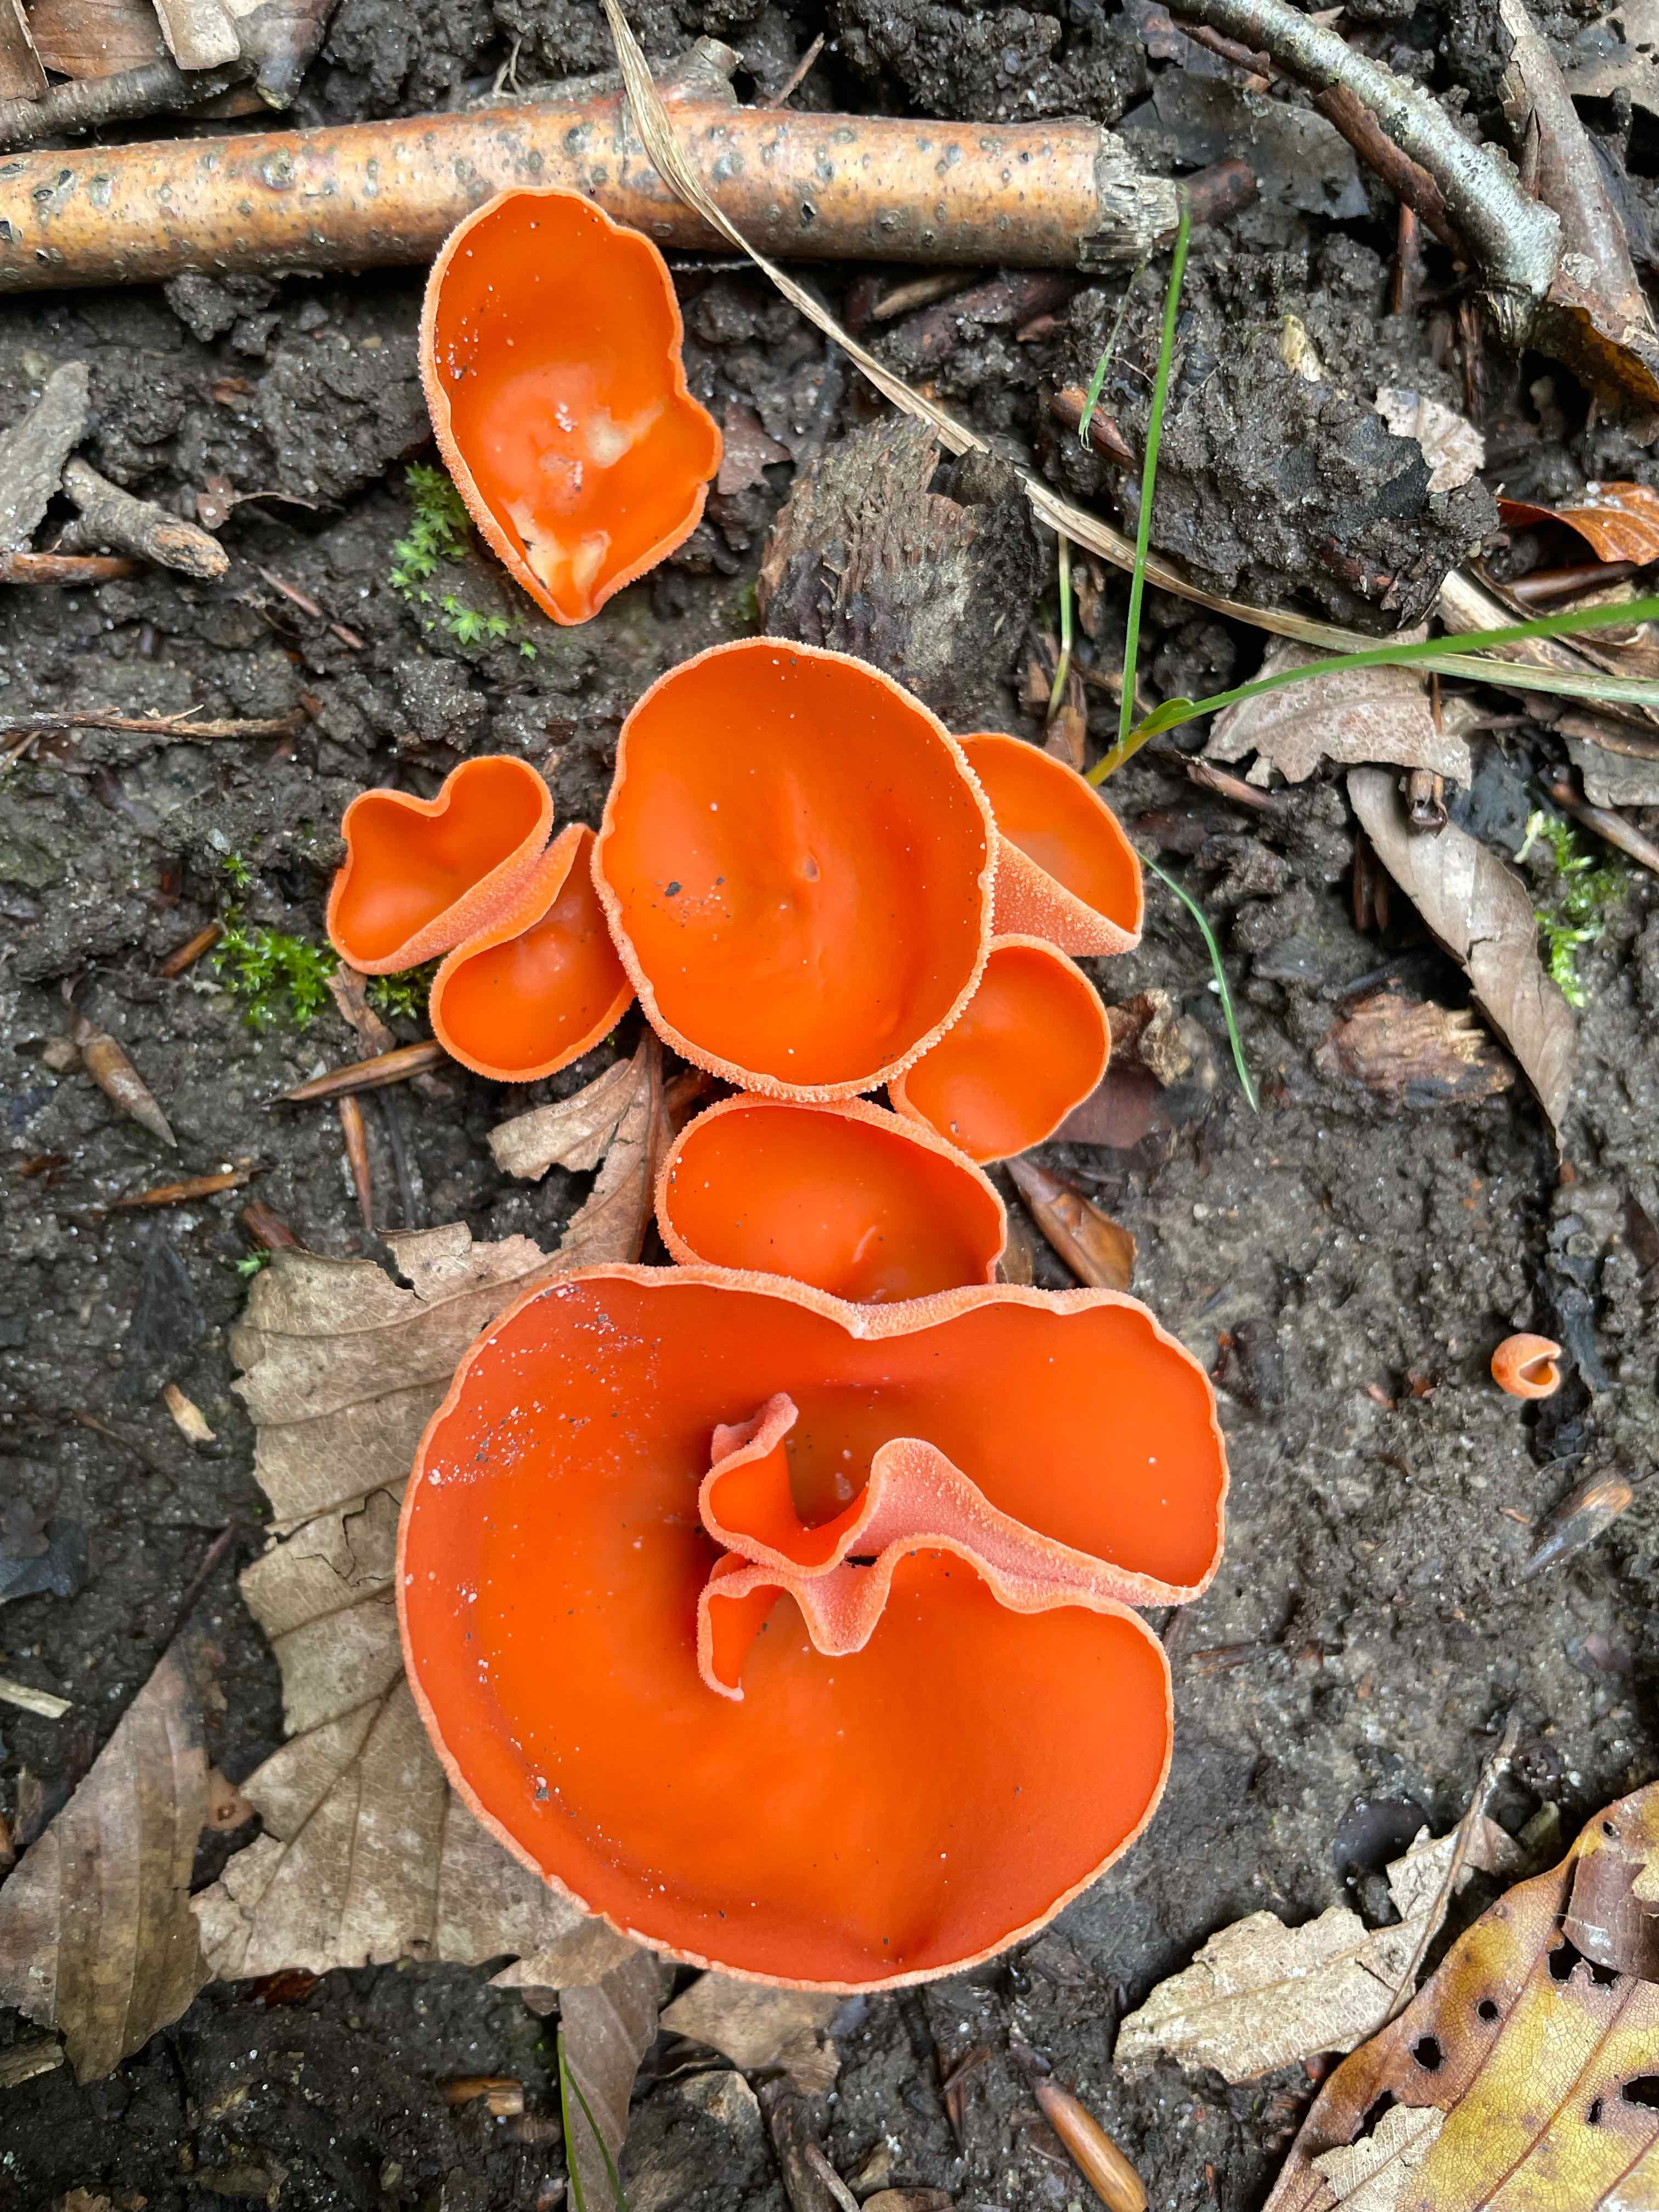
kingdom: Fungi
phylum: Ascomycota
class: Pezizomycetes
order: Pezizales
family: Pyronemataceae
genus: Aleuria
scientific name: Aleuria aurantia
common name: almindelig orangebæger
